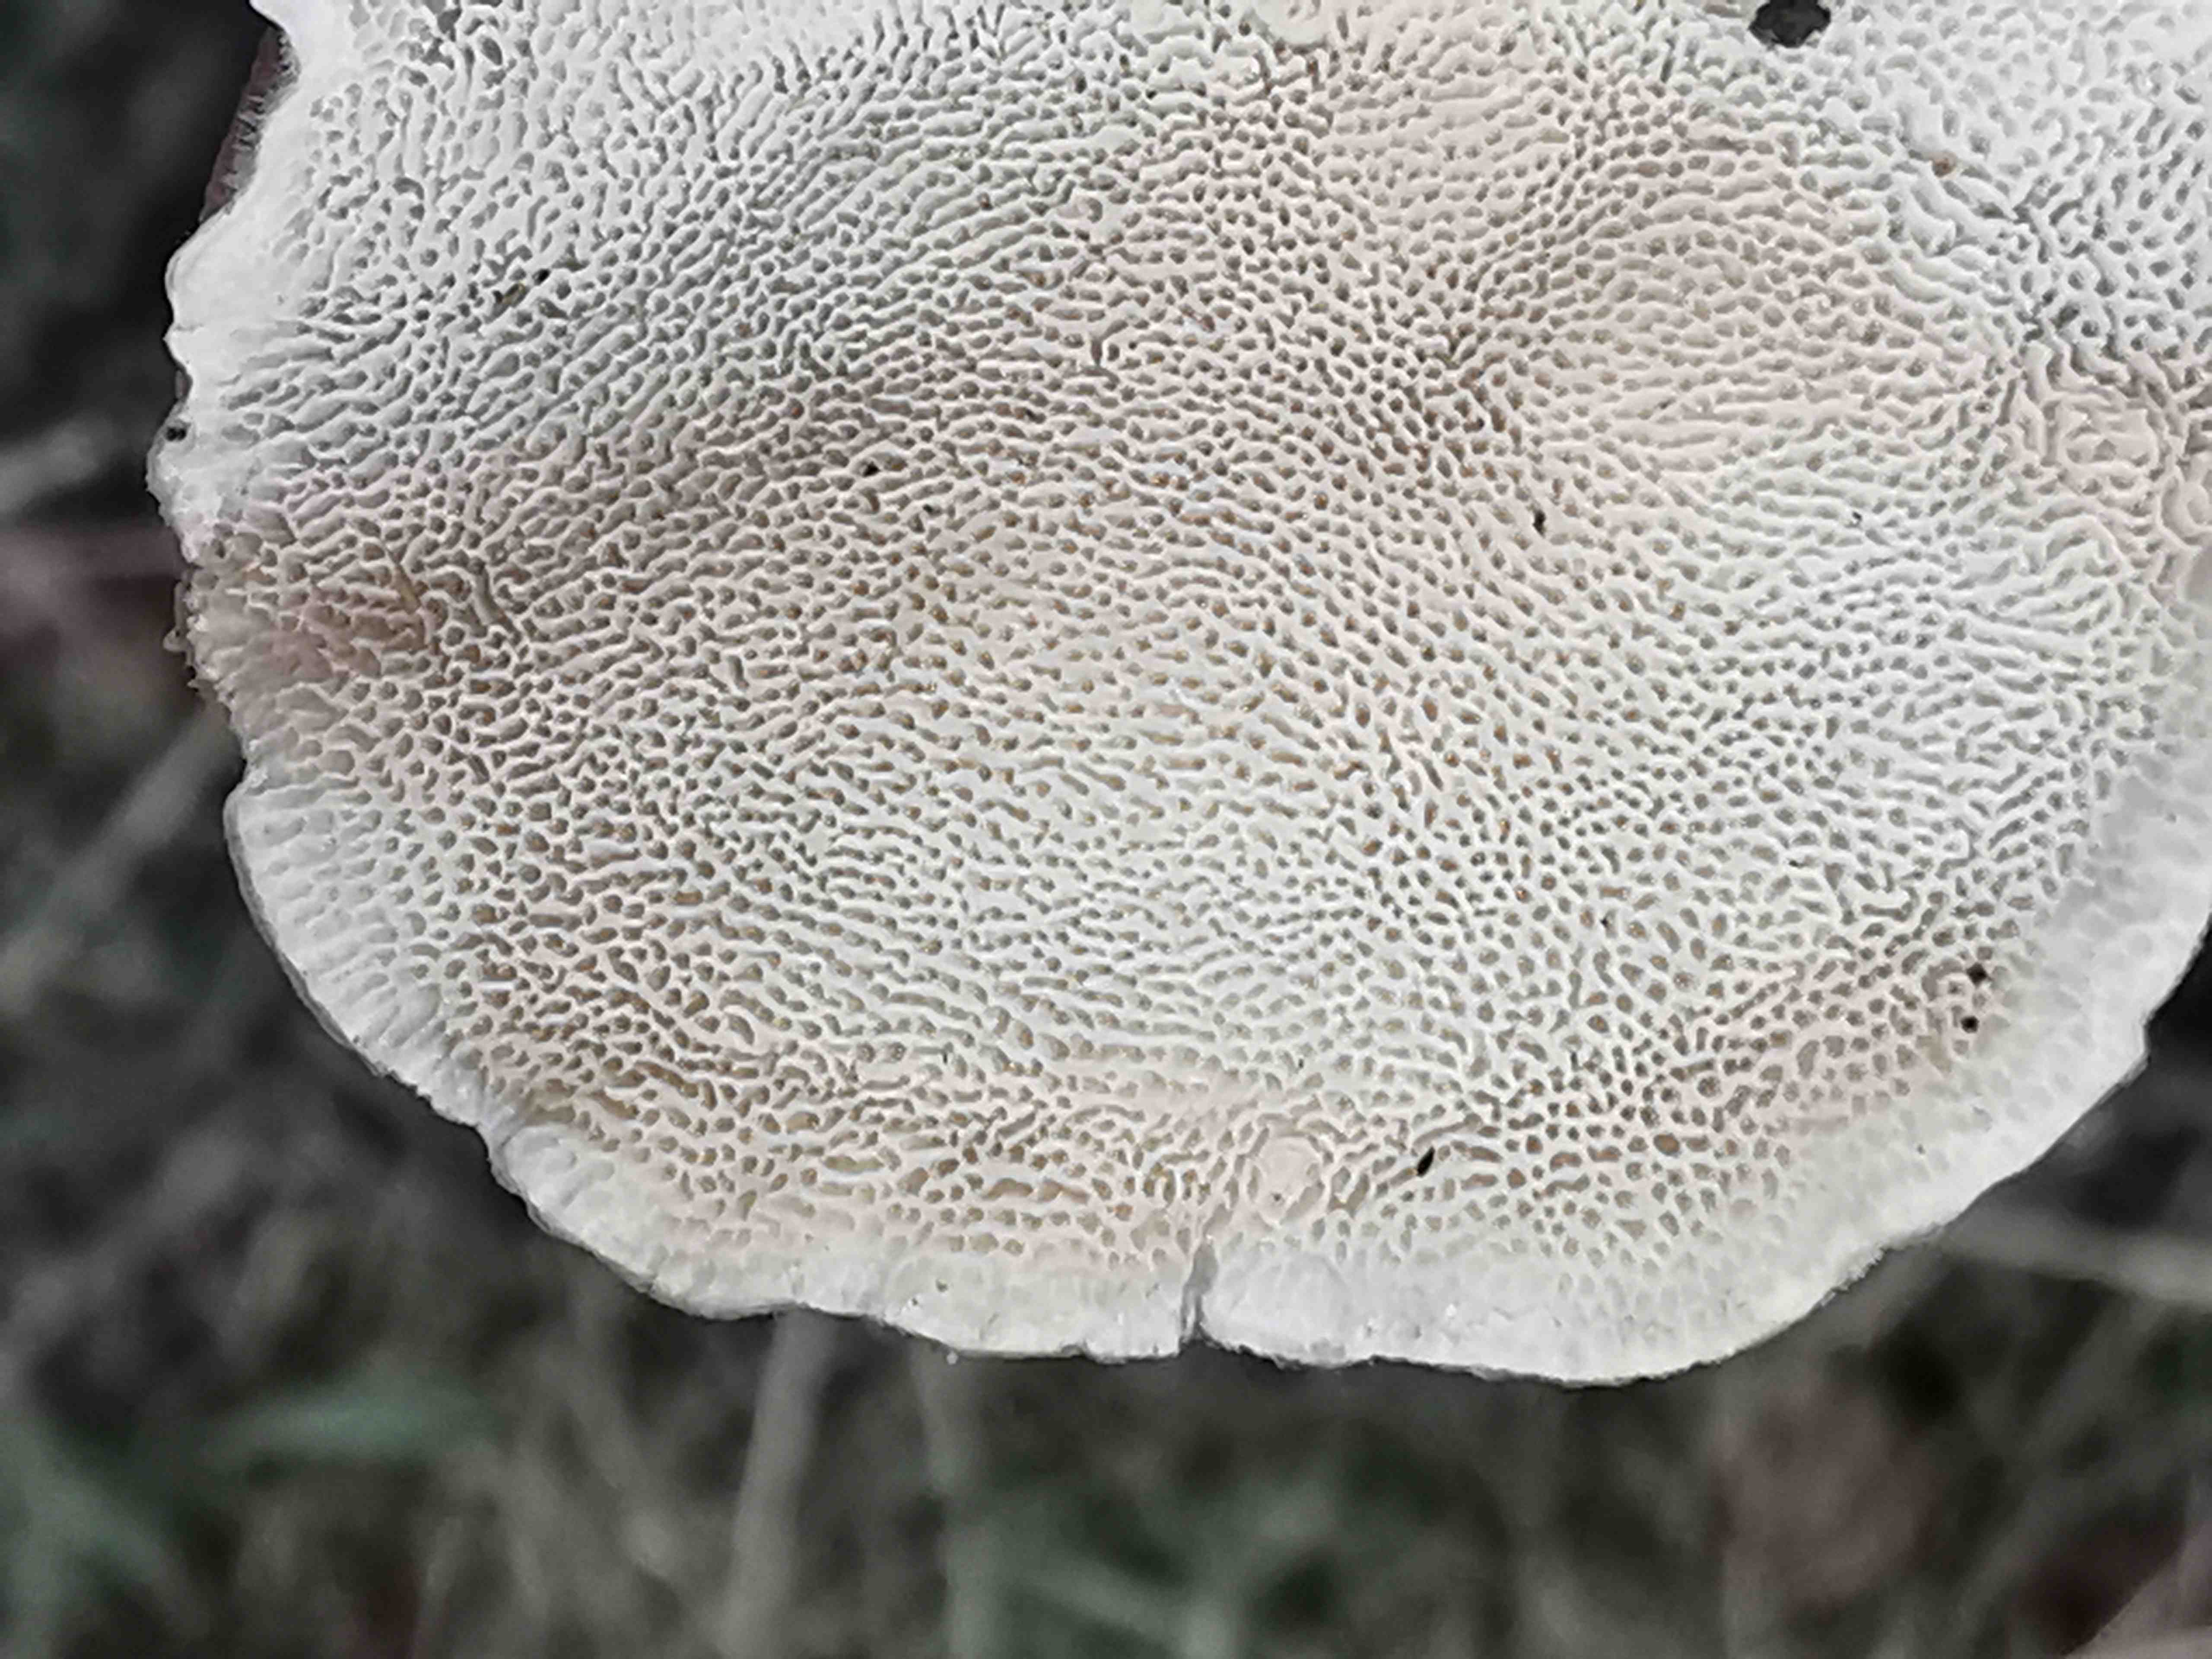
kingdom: Fungi
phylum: Basidiomycota
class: Agaricomycetes
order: Polyporales
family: Polyporaceae
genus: Trametes
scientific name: Trametes ochracea
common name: bæltet læderporesvamp
